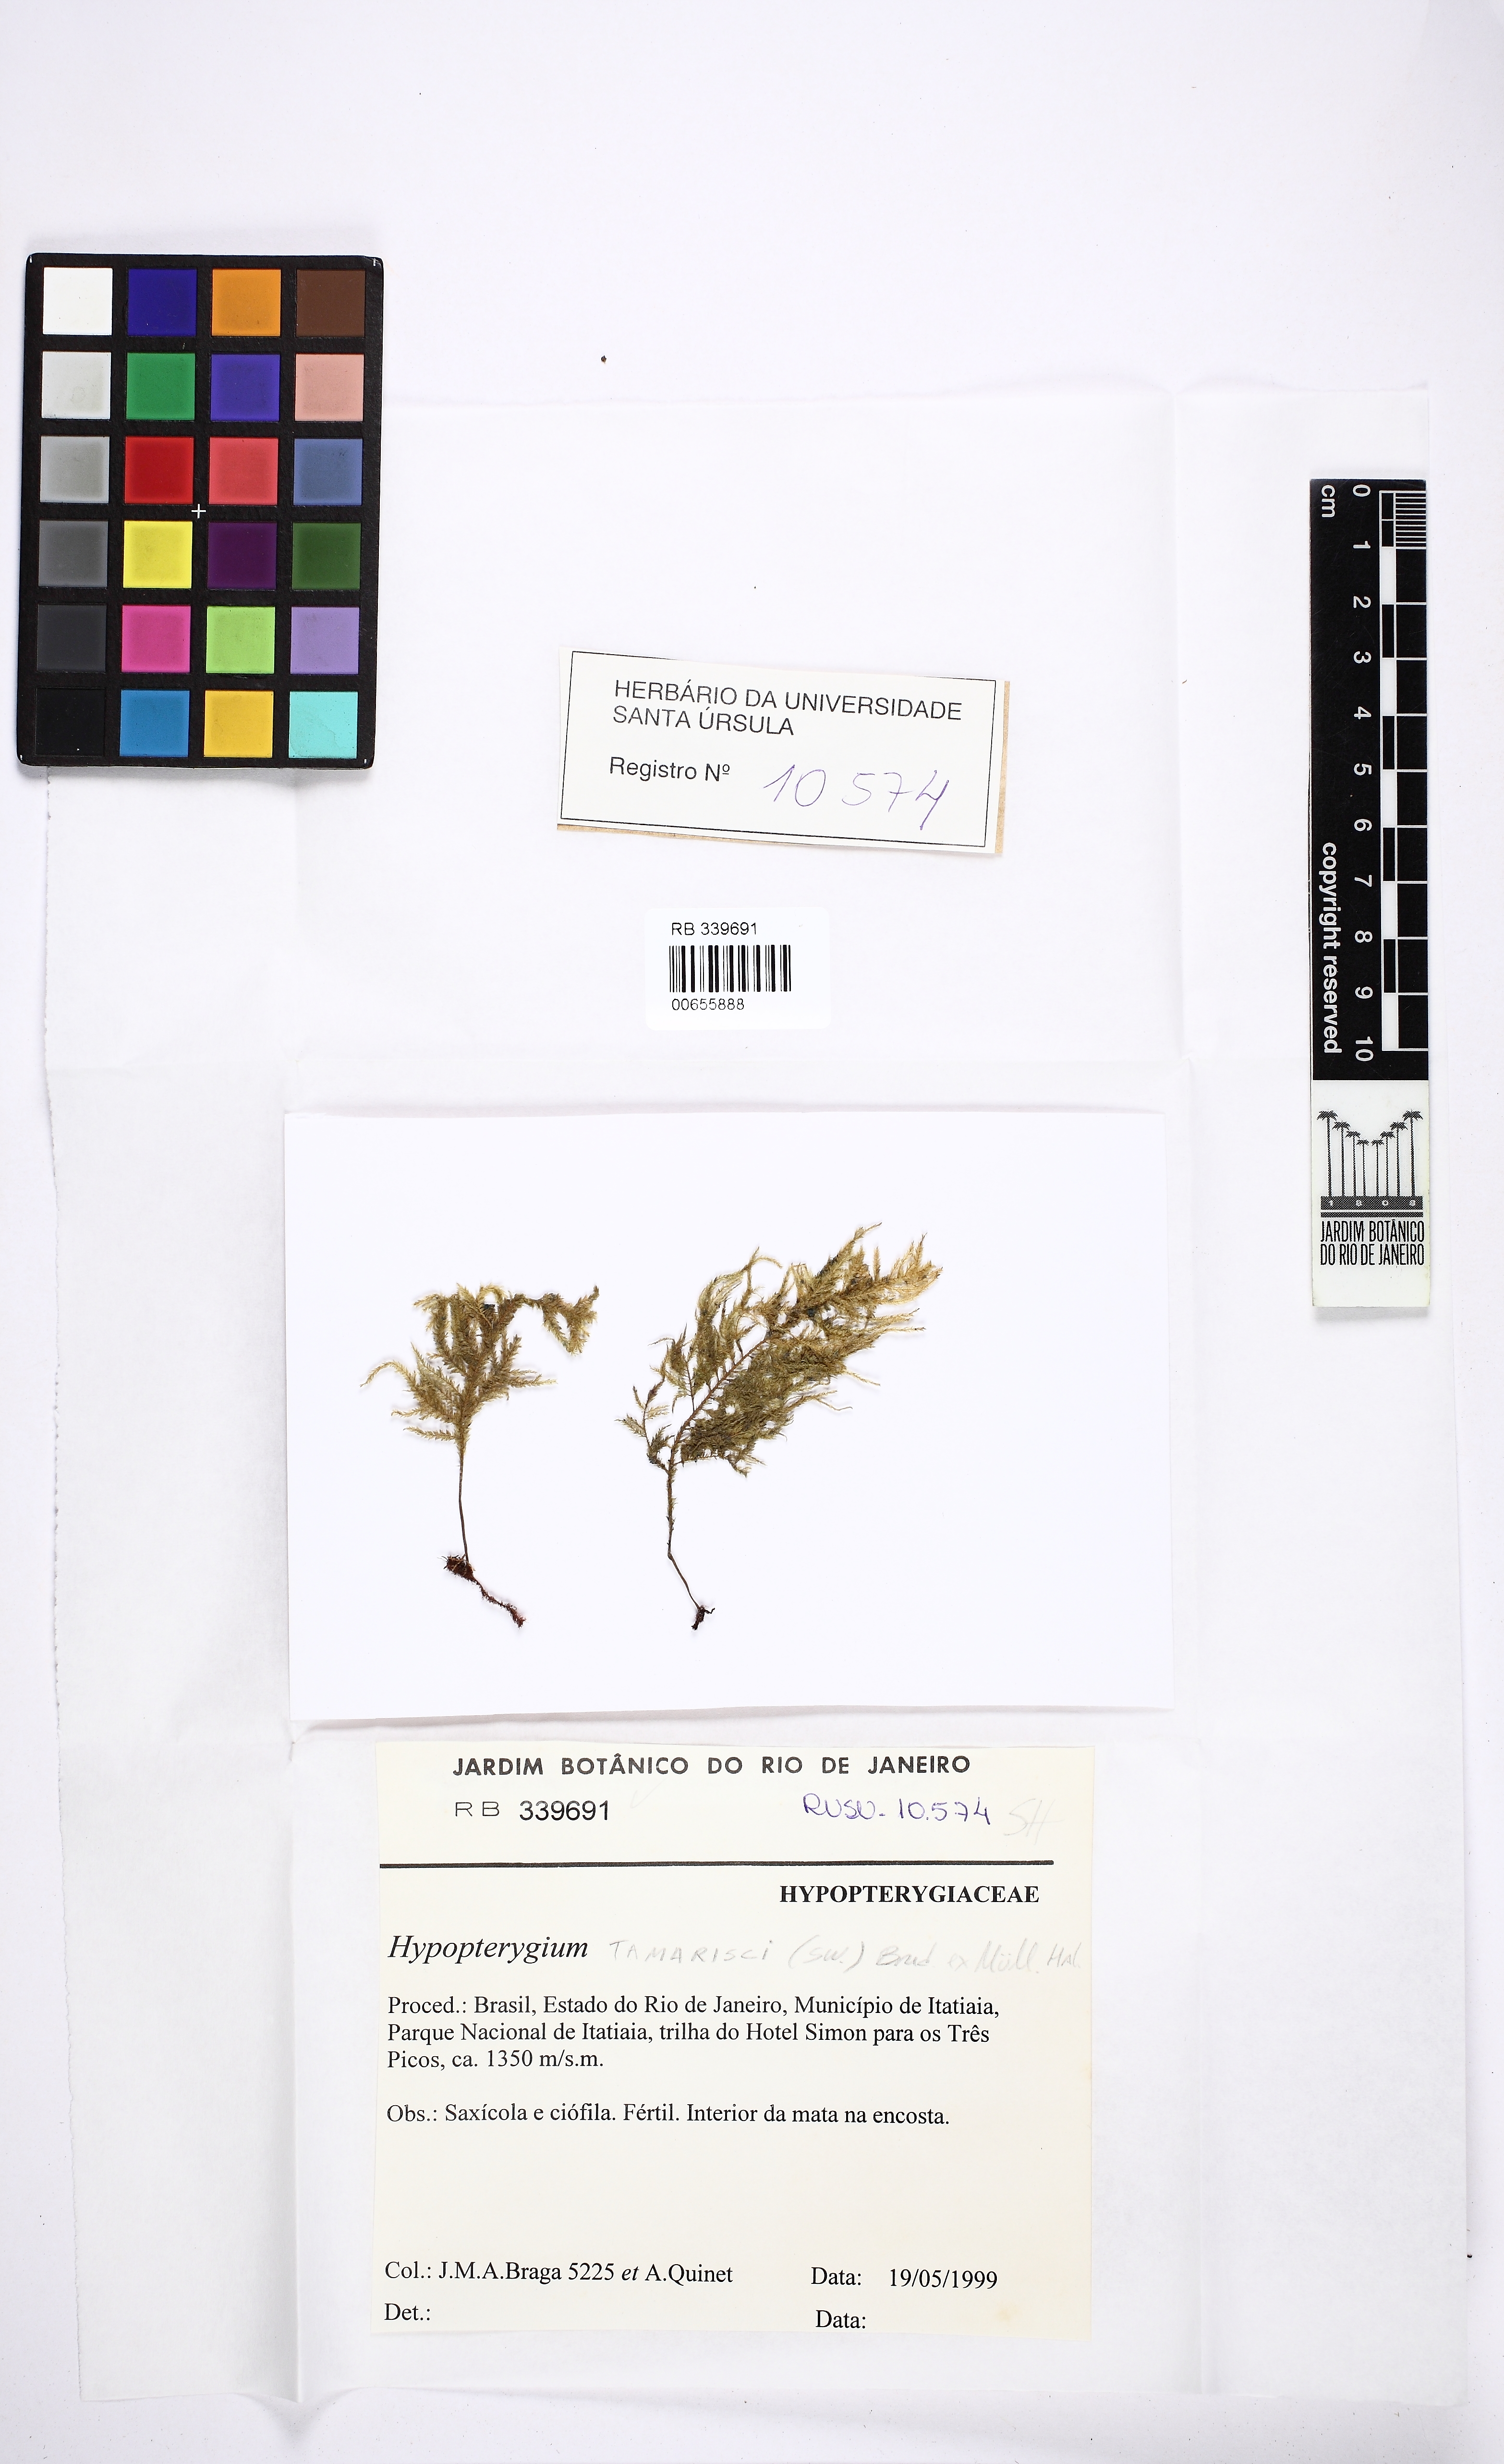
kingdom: Plantae
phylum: Bryophyta
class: Bryopsida
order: Hypopterygiales
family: Hypopterygiaceae
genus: Hypopterygium
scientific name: Hypopterygium tamarisci
